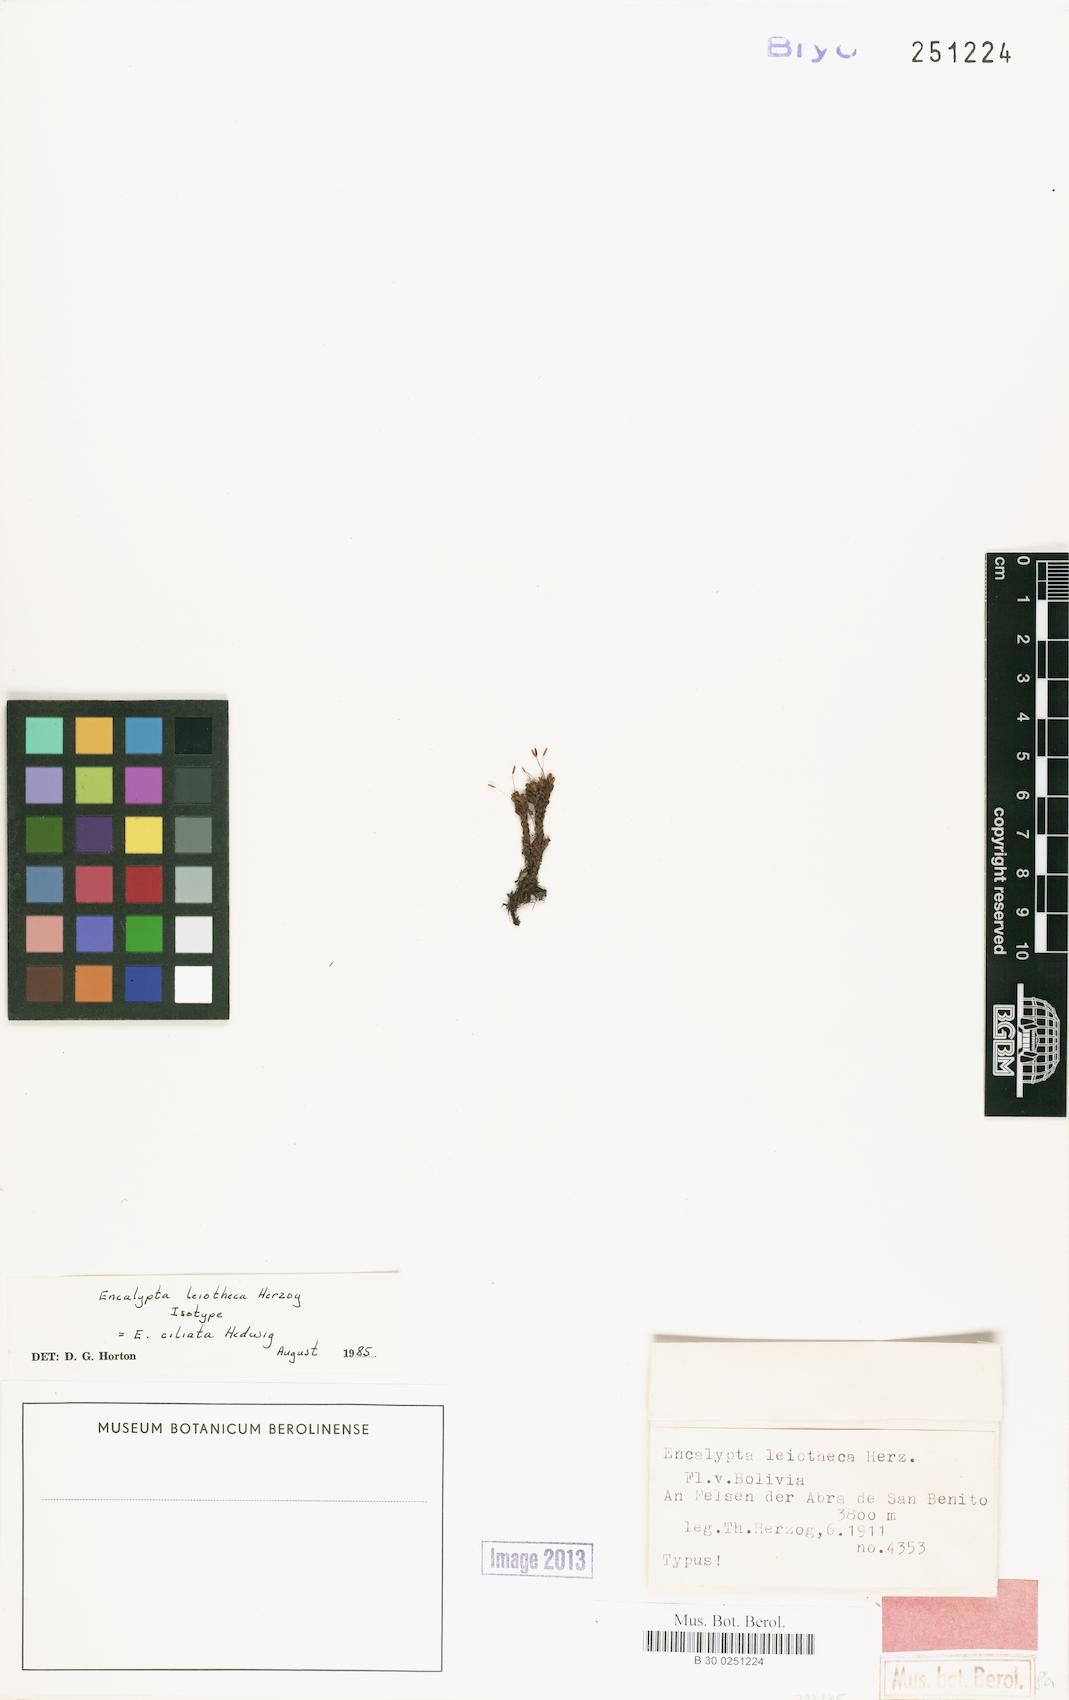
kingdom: Plantae
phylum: Bryophyta
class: Bryopsida
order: Encalyptales
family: Encalyptaceae
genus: Encalypta
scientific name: Encalypta ciliata
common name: Fringed extinguisher-moss
